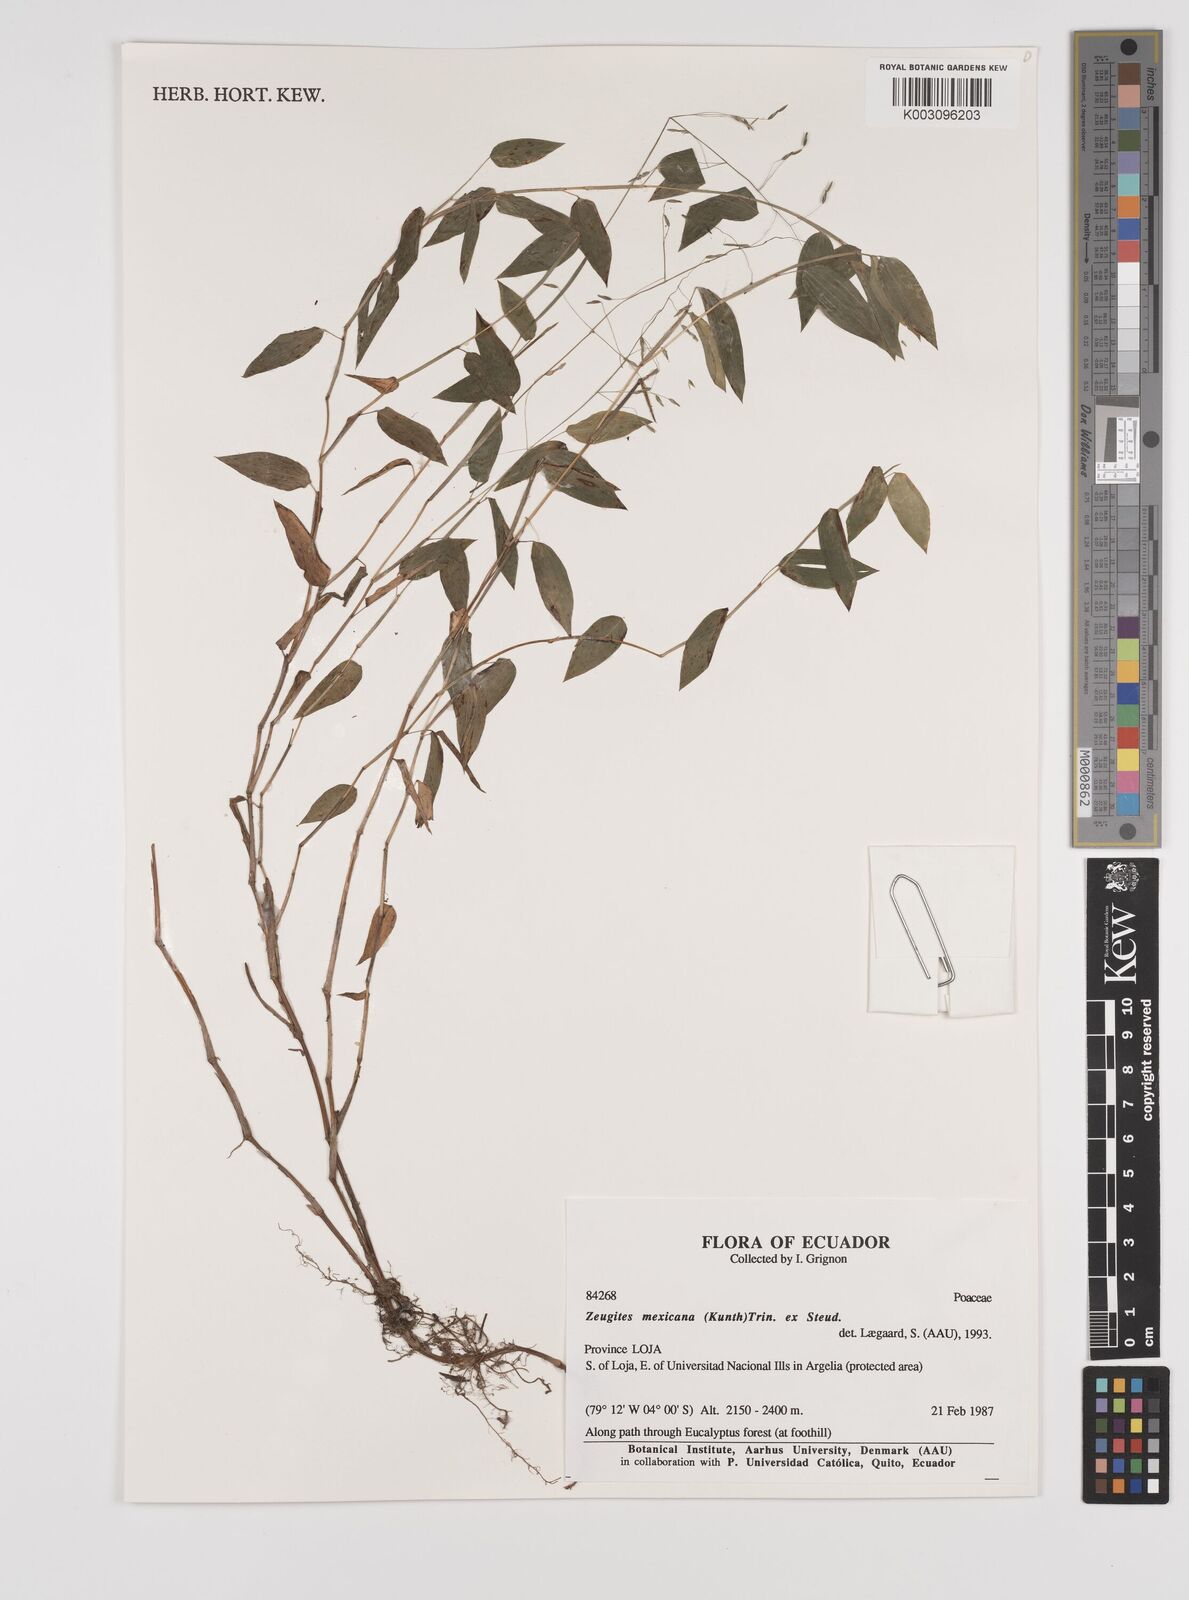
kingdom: Plantae
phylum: Tracheophyta
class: Liliopsida
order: Poales
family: Poaceae
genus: Zeugites
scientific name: Zeugites americanus
